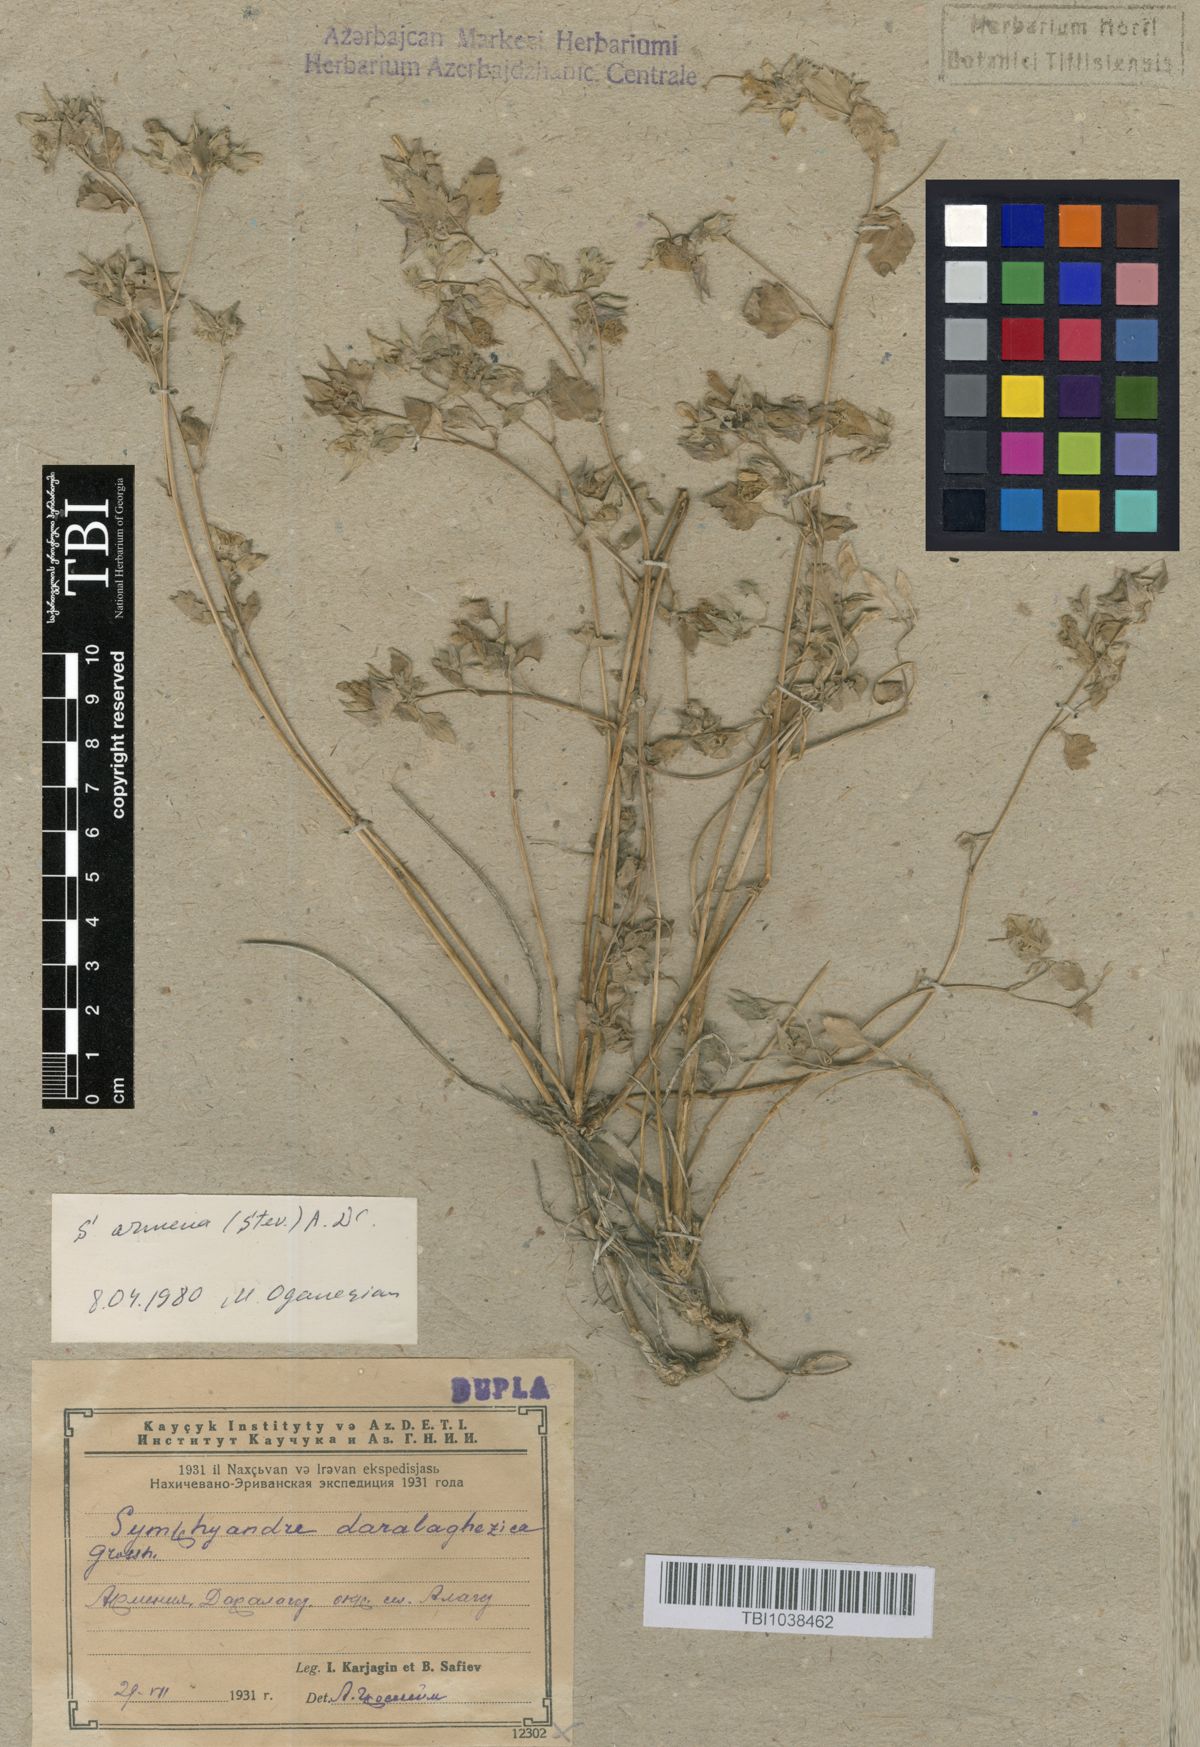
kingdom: Plantae
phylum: Tracheophyta
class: Magnoliopsida
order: Asterales
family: Campanulaceae
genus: Campanula
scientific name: Campanula armena
